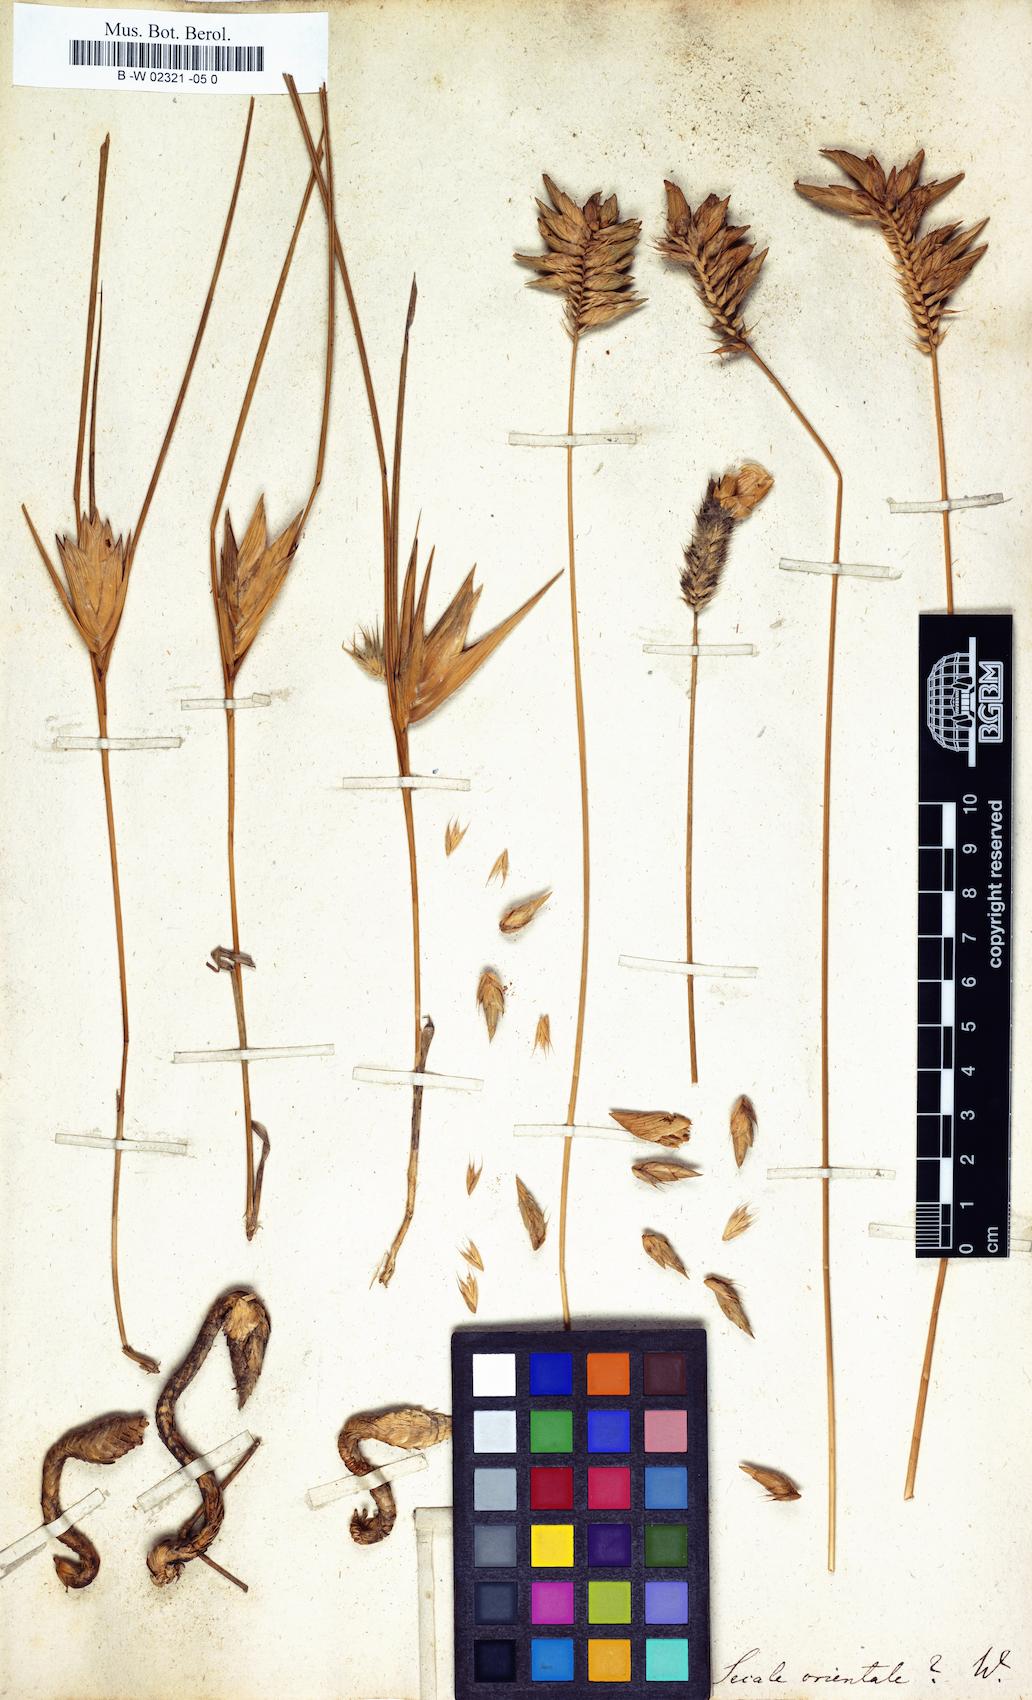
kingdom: Plantae
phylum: Tracheophyta
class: Liliopsida
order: Poales
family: Poaceae
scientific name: Poaceae
